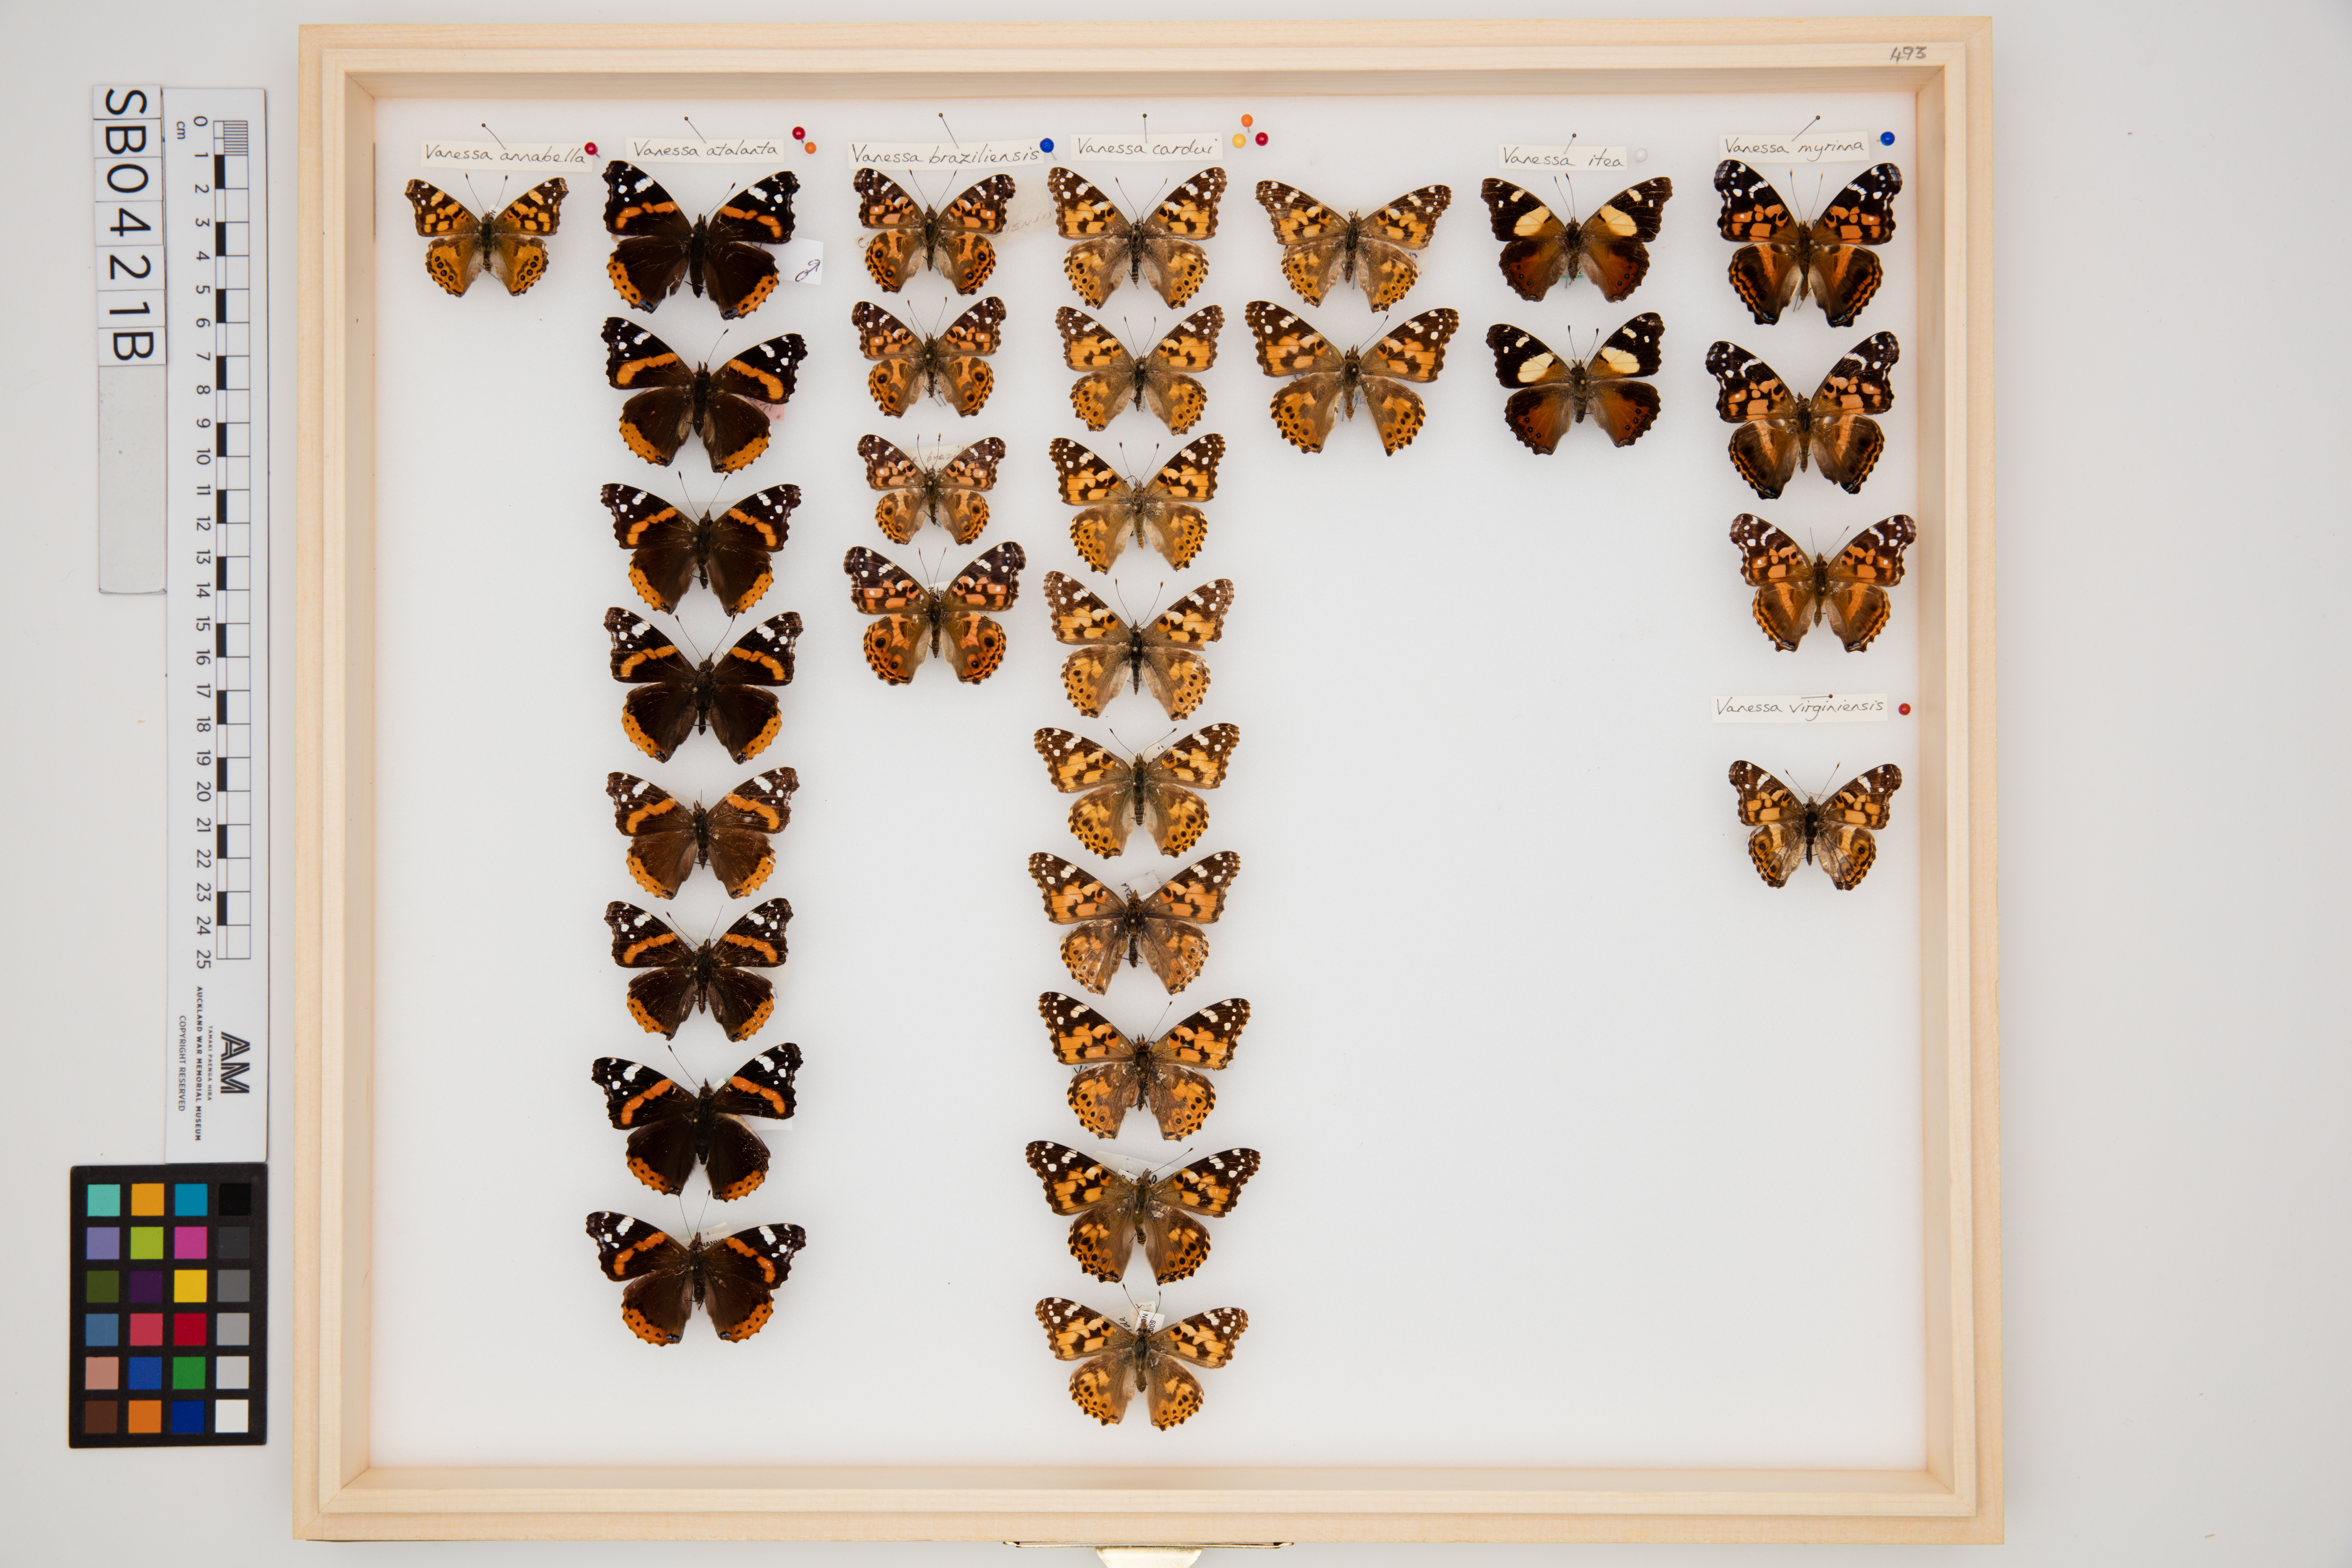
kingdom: Animalia
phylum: Arthropoda
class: Insecta
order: Lepidoptera
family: Nymphalidae
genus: Vanessa
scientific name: Vanessa atalanta
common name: Red admiral
